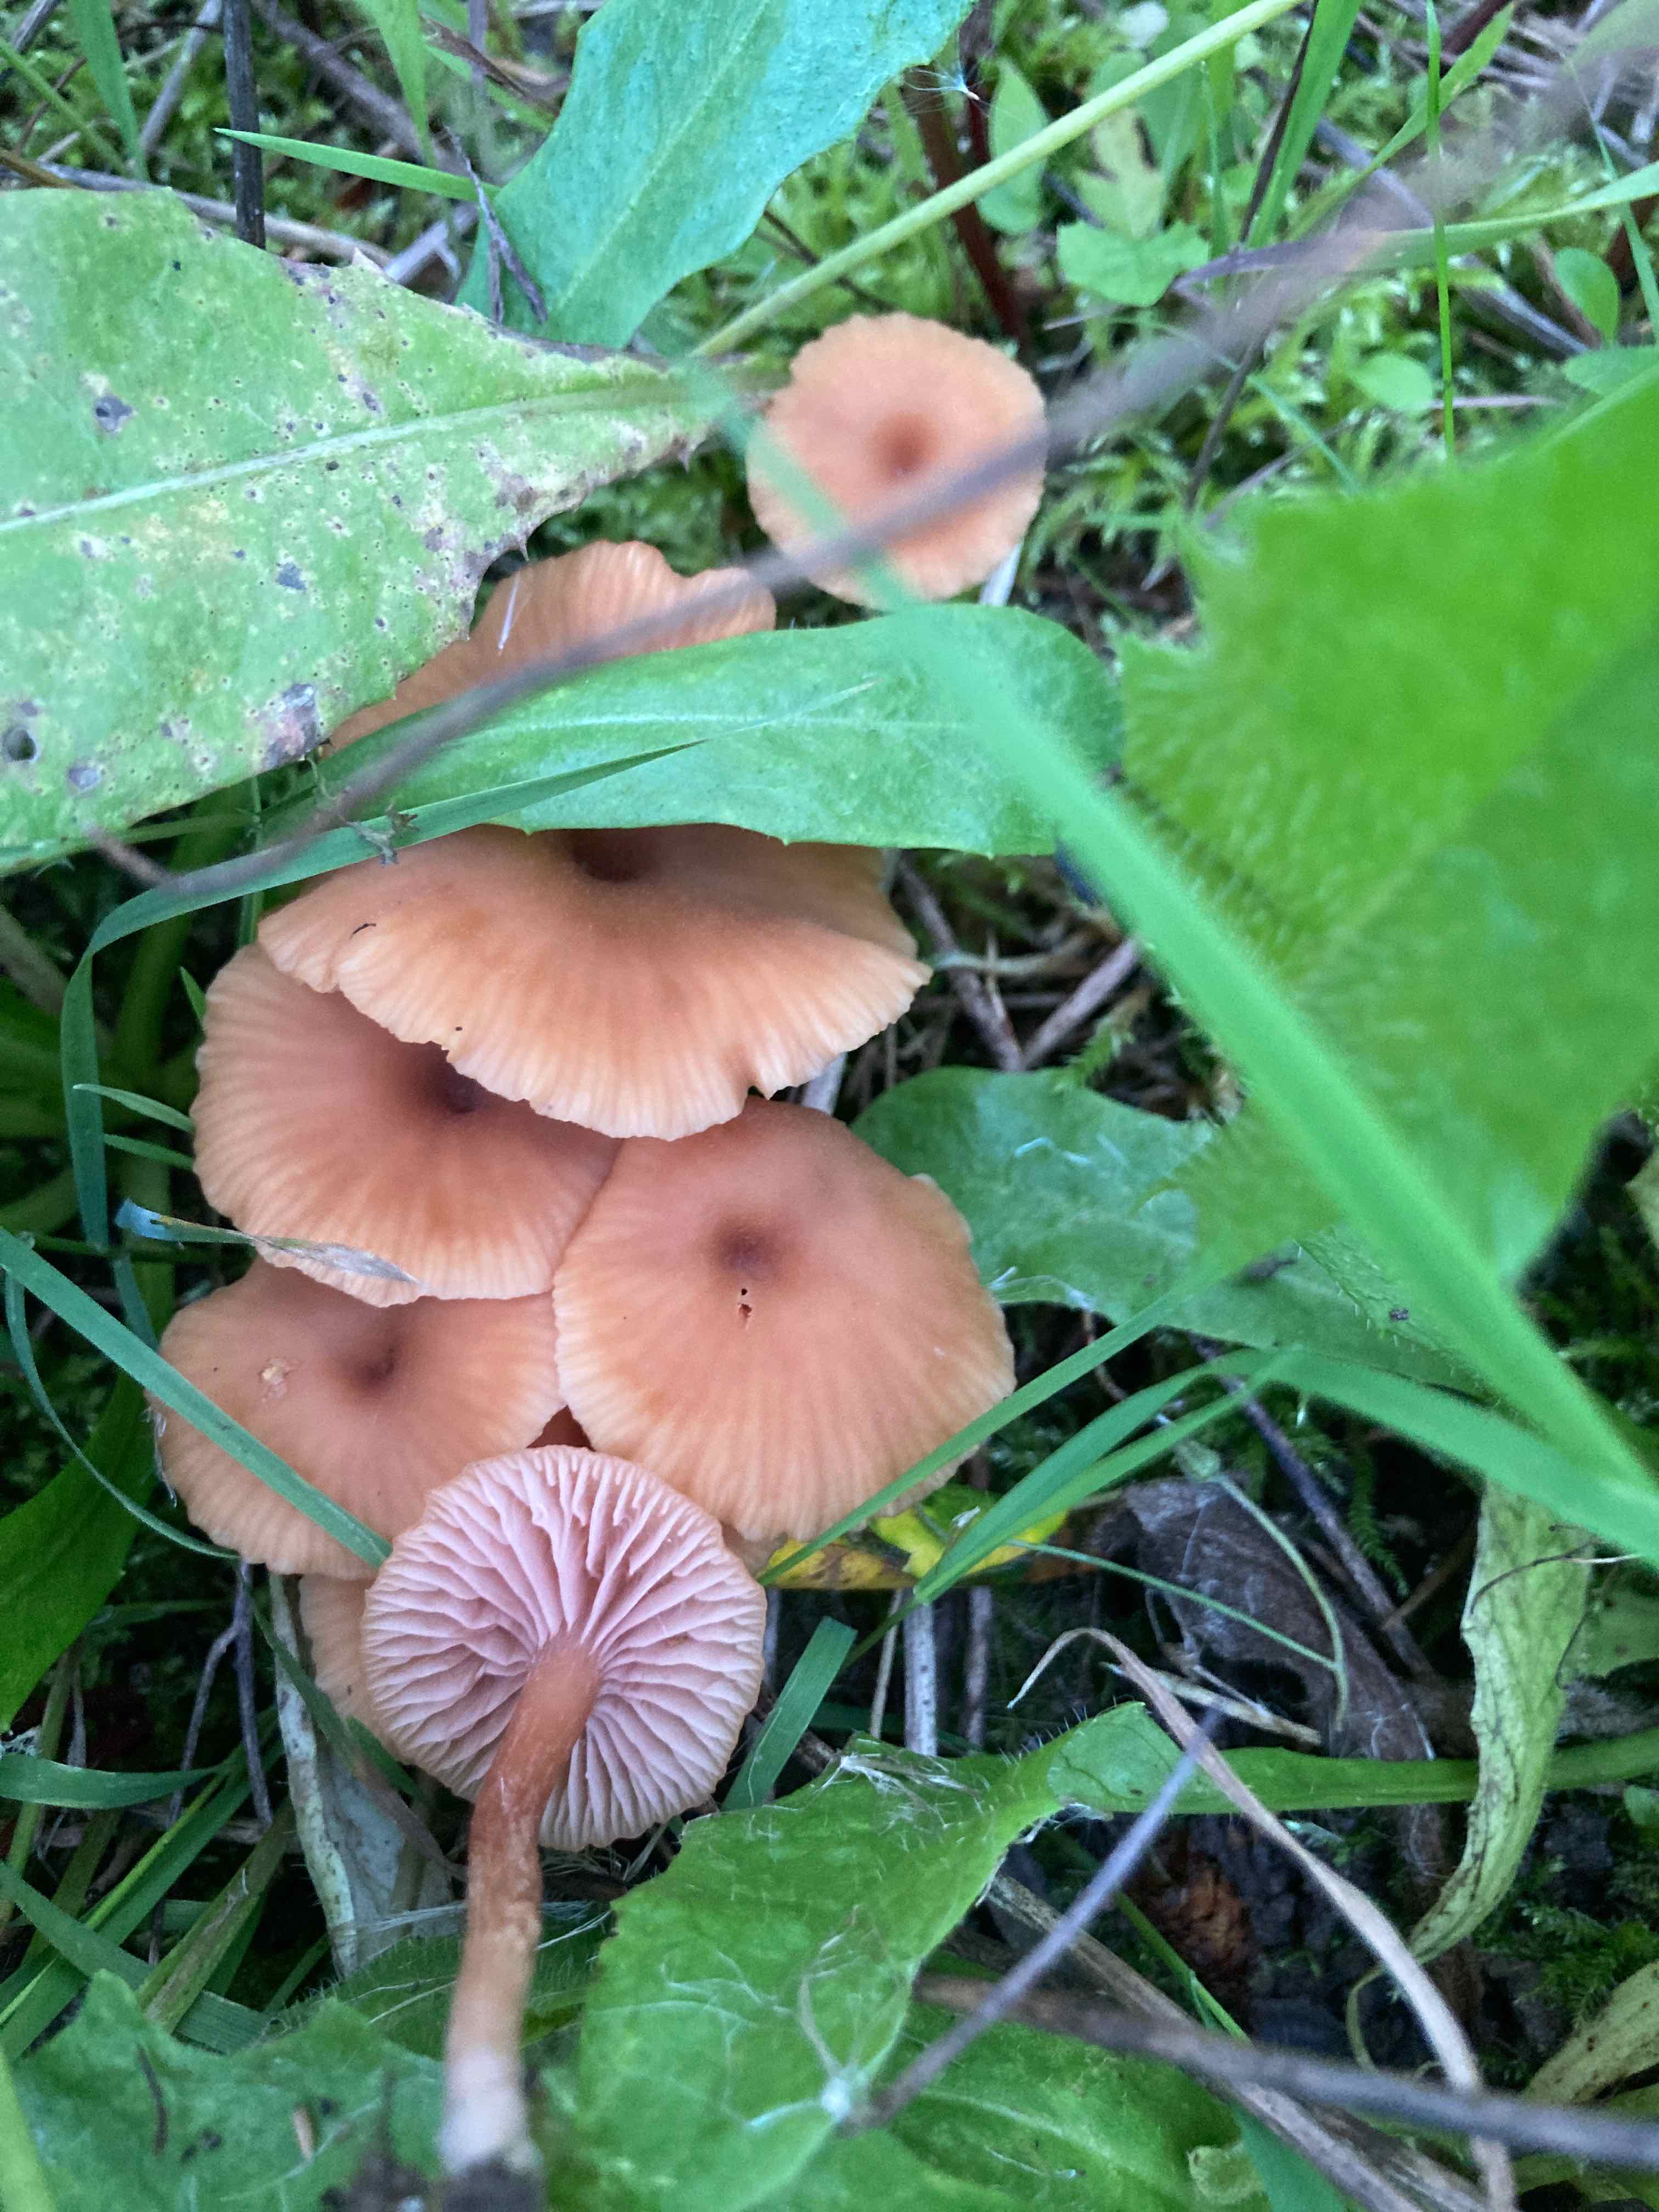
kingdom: Fungi
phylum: Basidiomycota
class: Agaricomycetes
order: Agaricales
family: Hydnangiaceae
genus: Laccaria
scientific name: Laccaria
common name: ametysthat
